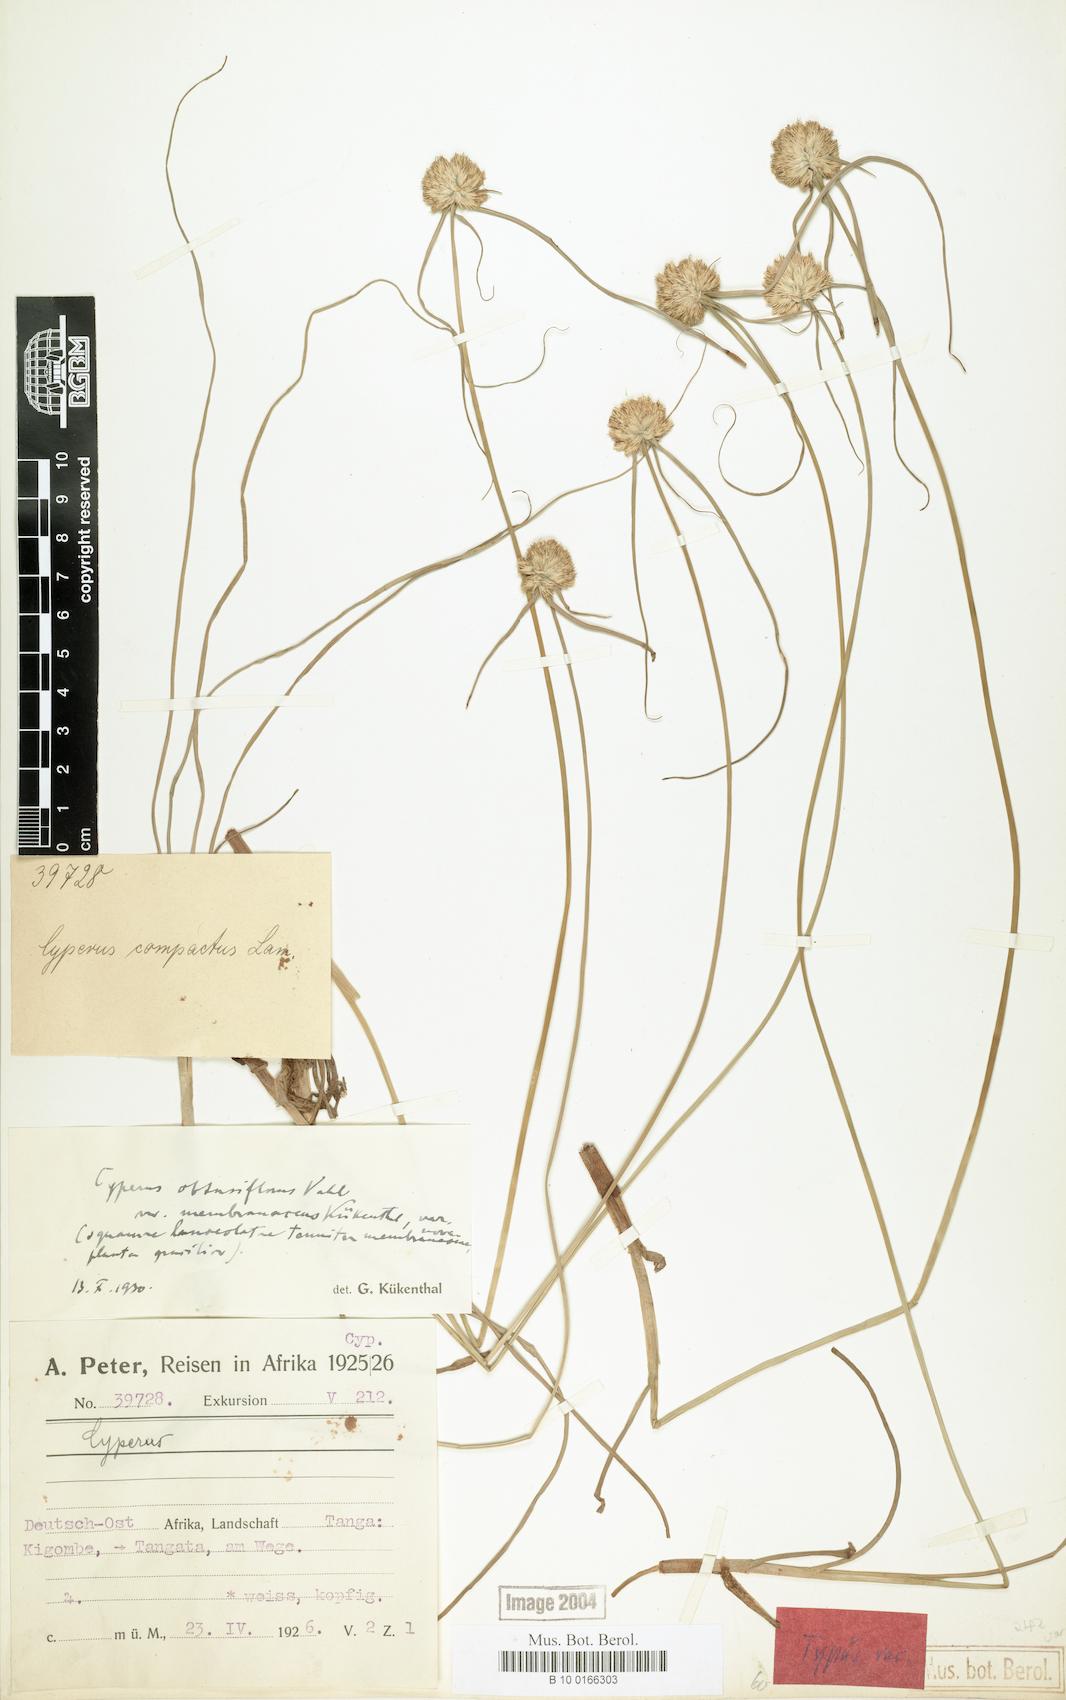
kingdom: Plantae
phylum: Tracheophyta
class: Liliopsida
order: Poales
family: Cyperaceae
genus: Cyperus
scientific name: Cyperus niveus
